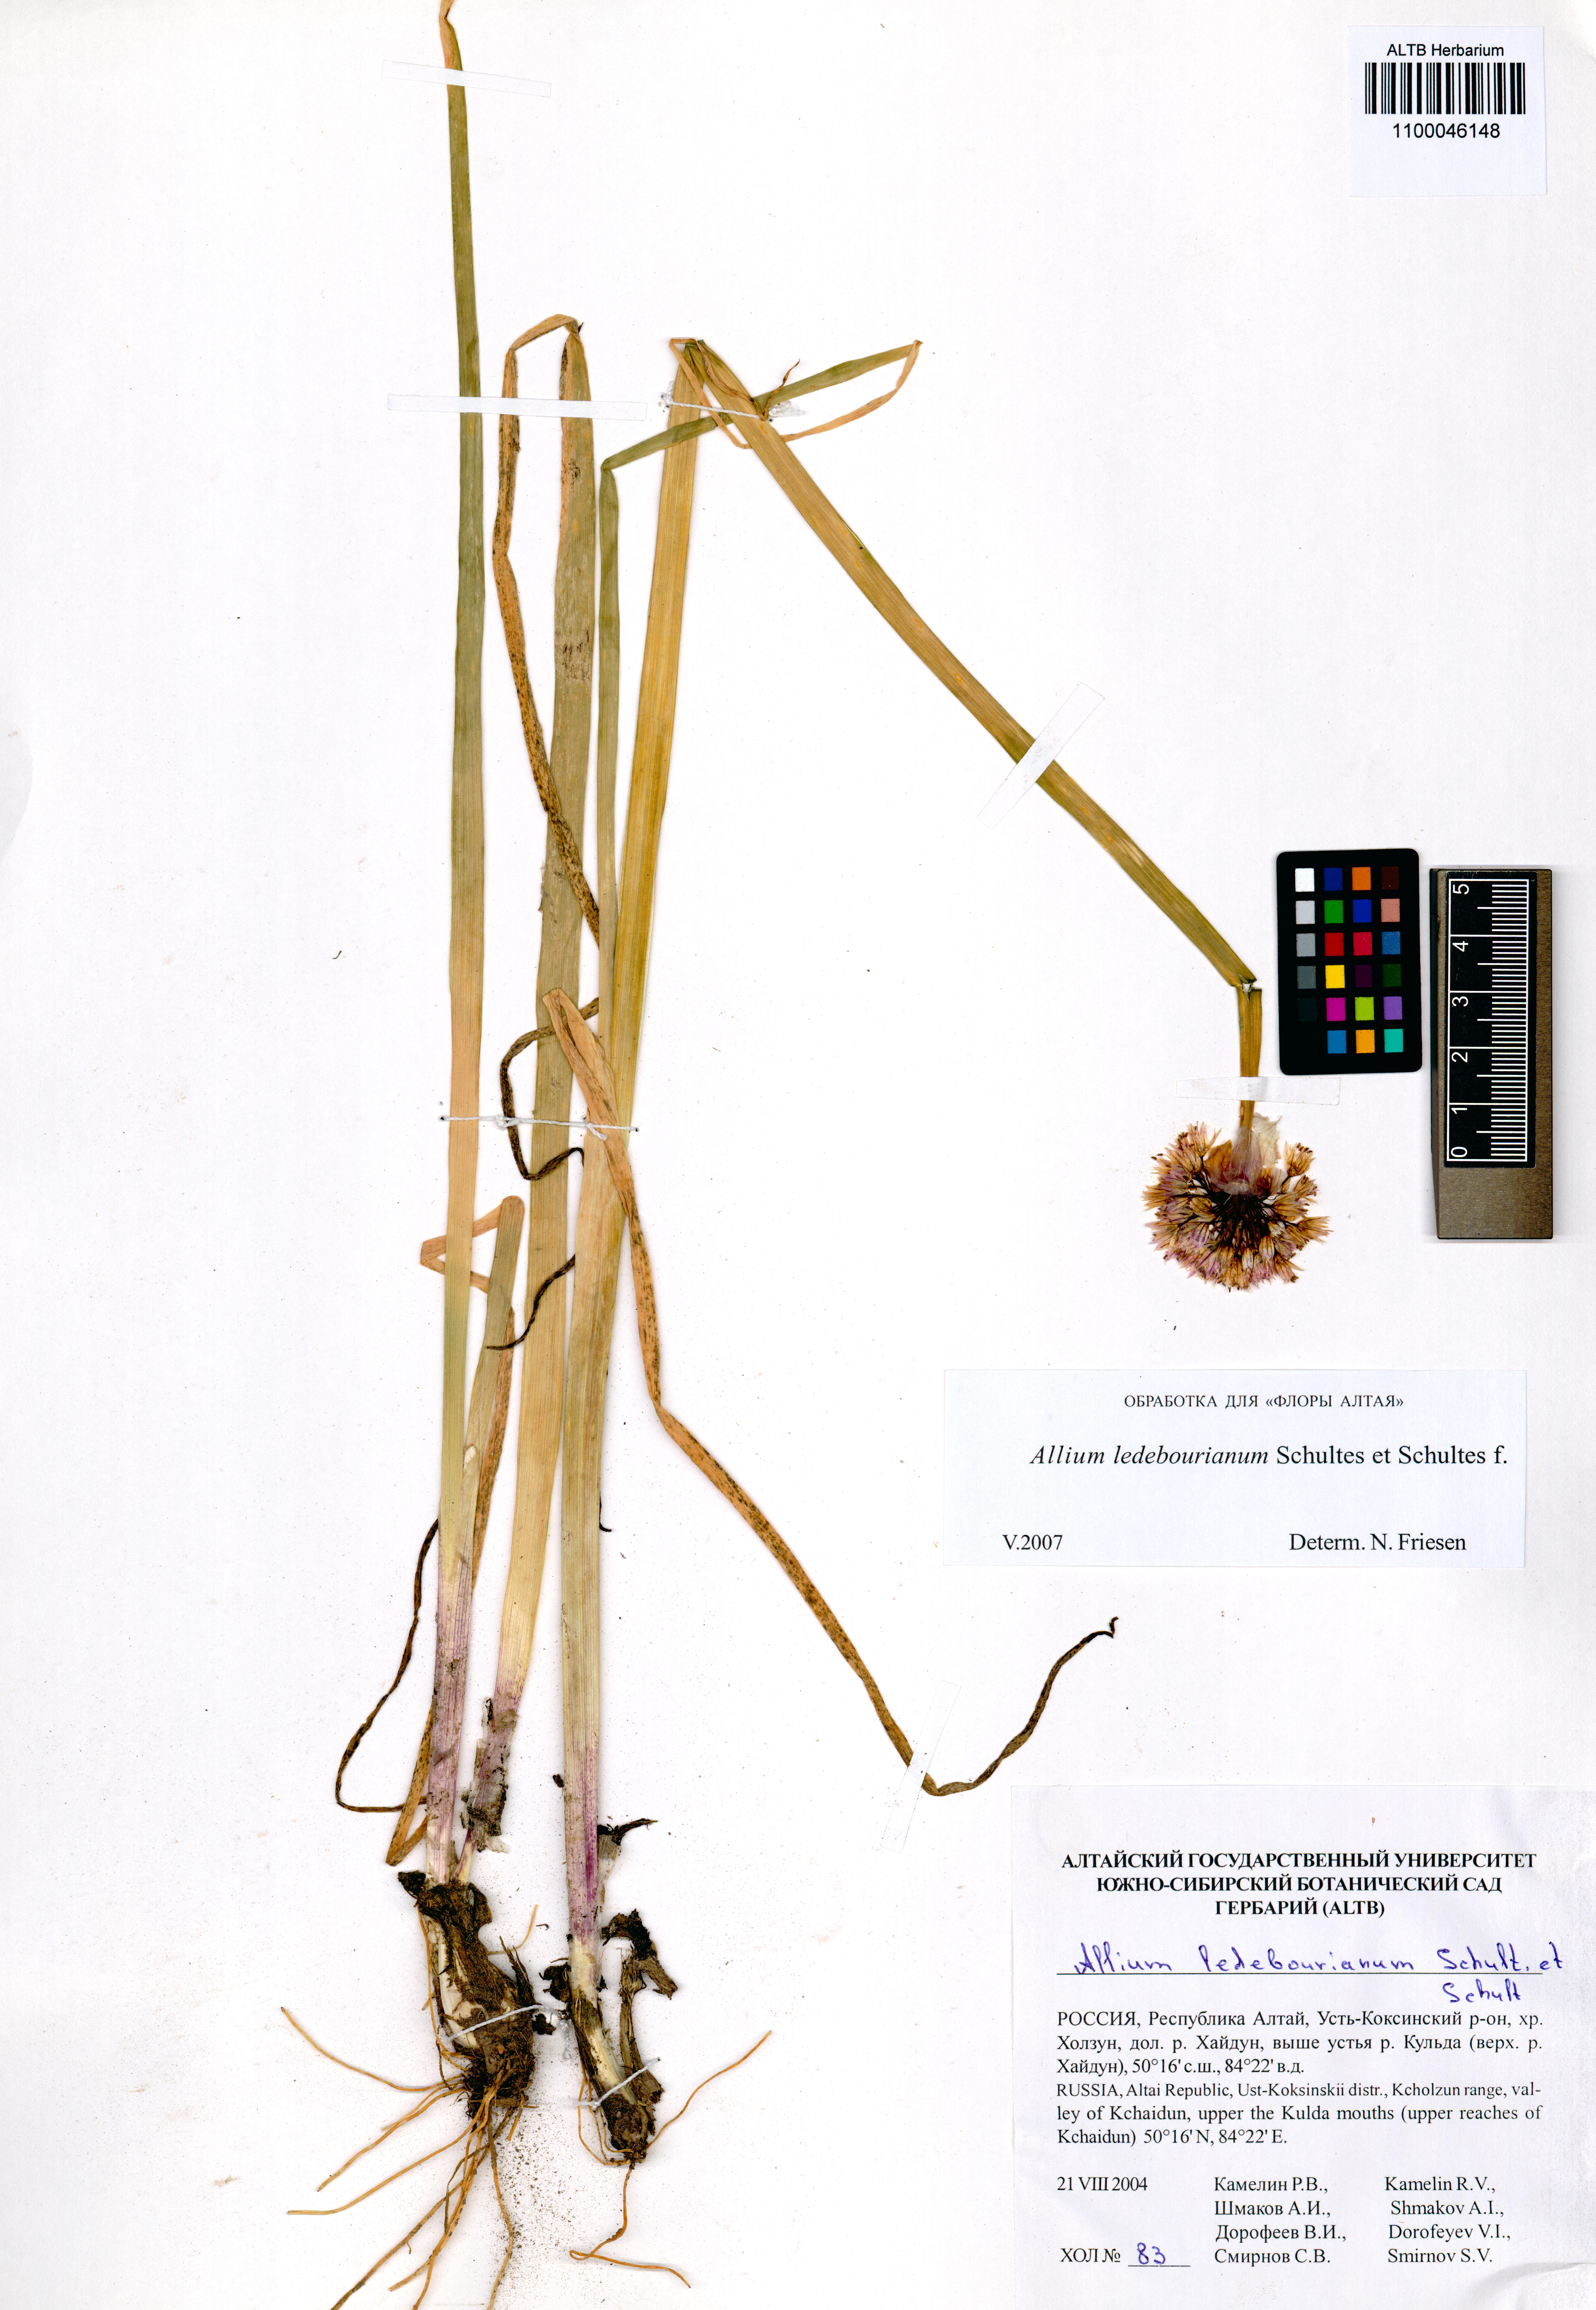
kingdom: Plantae
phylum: Tracheophyta
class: Liliopsida
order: Asparagales
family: Amaryllidaceae
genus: Allium
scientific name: Allium ledebourianum
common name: Ledebour chive
